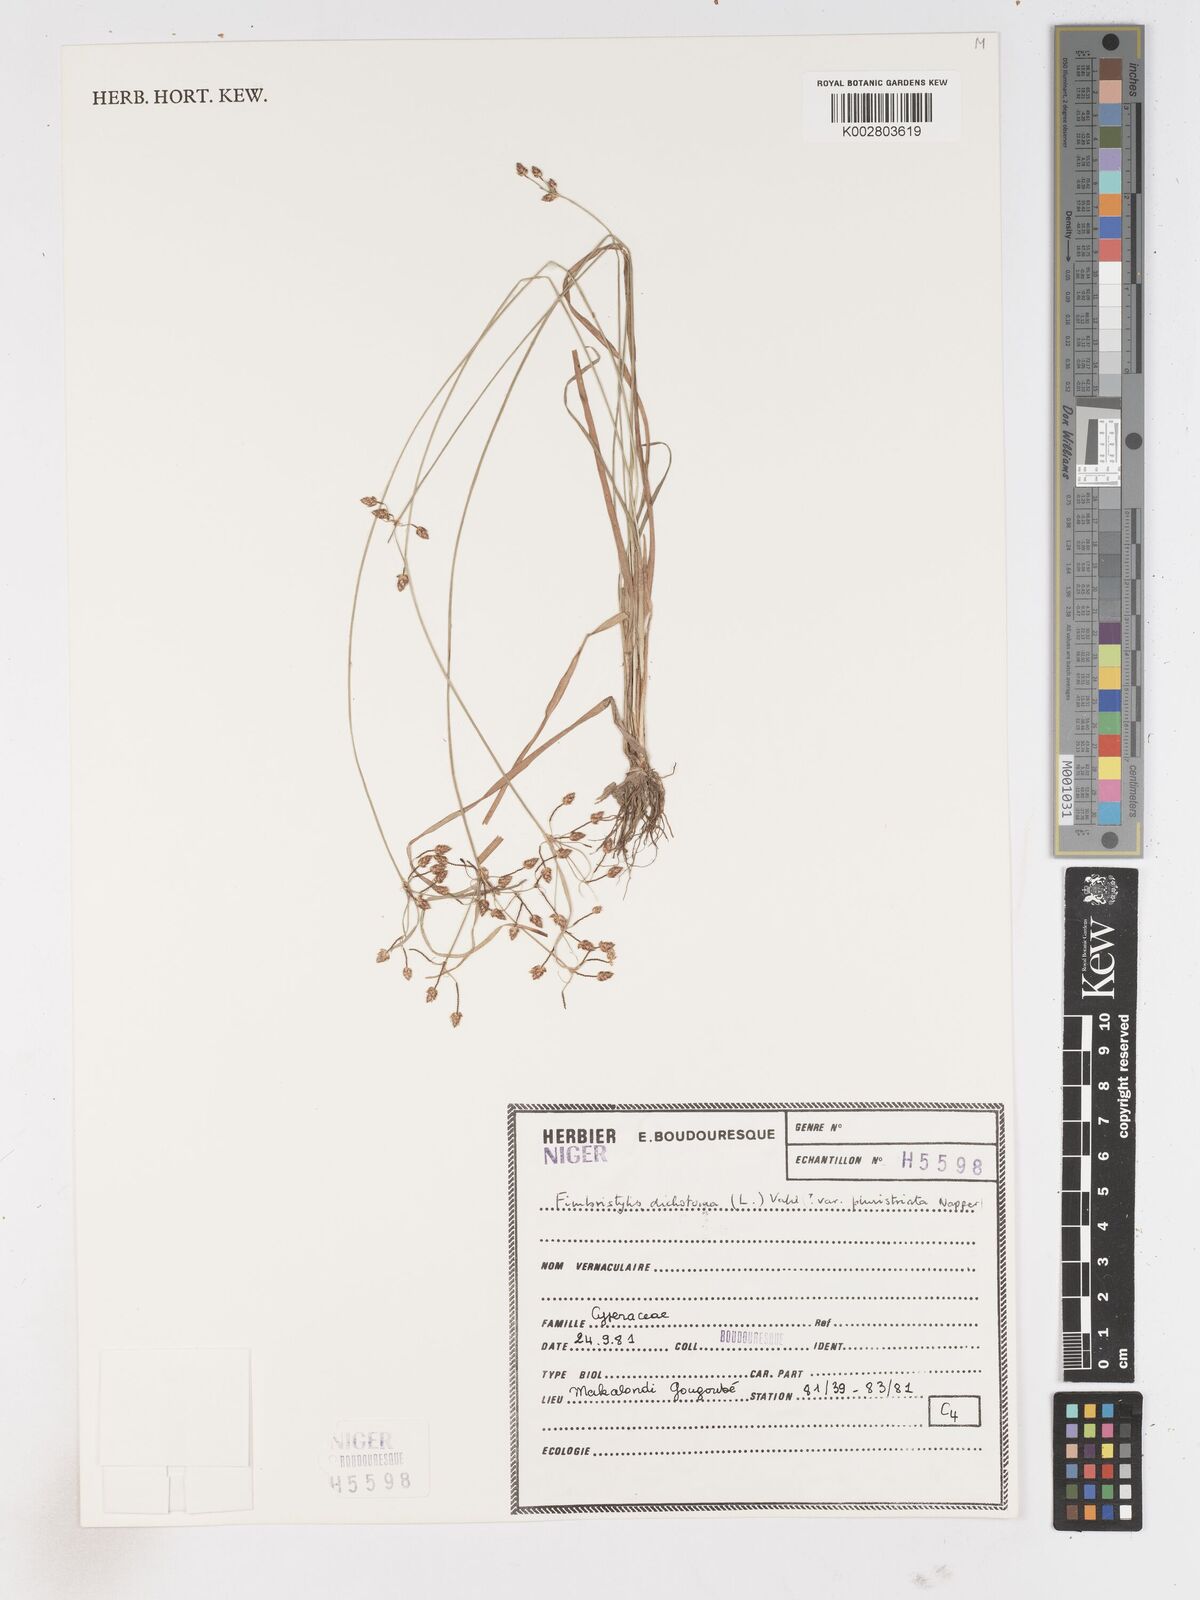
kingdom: Plantae
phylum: Tracheophyta
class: Liliopsida
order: Poales
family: Cyperaceae
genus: Fimbristylis
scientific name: Fimbristylis dichotoma
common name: Forked fimbry
